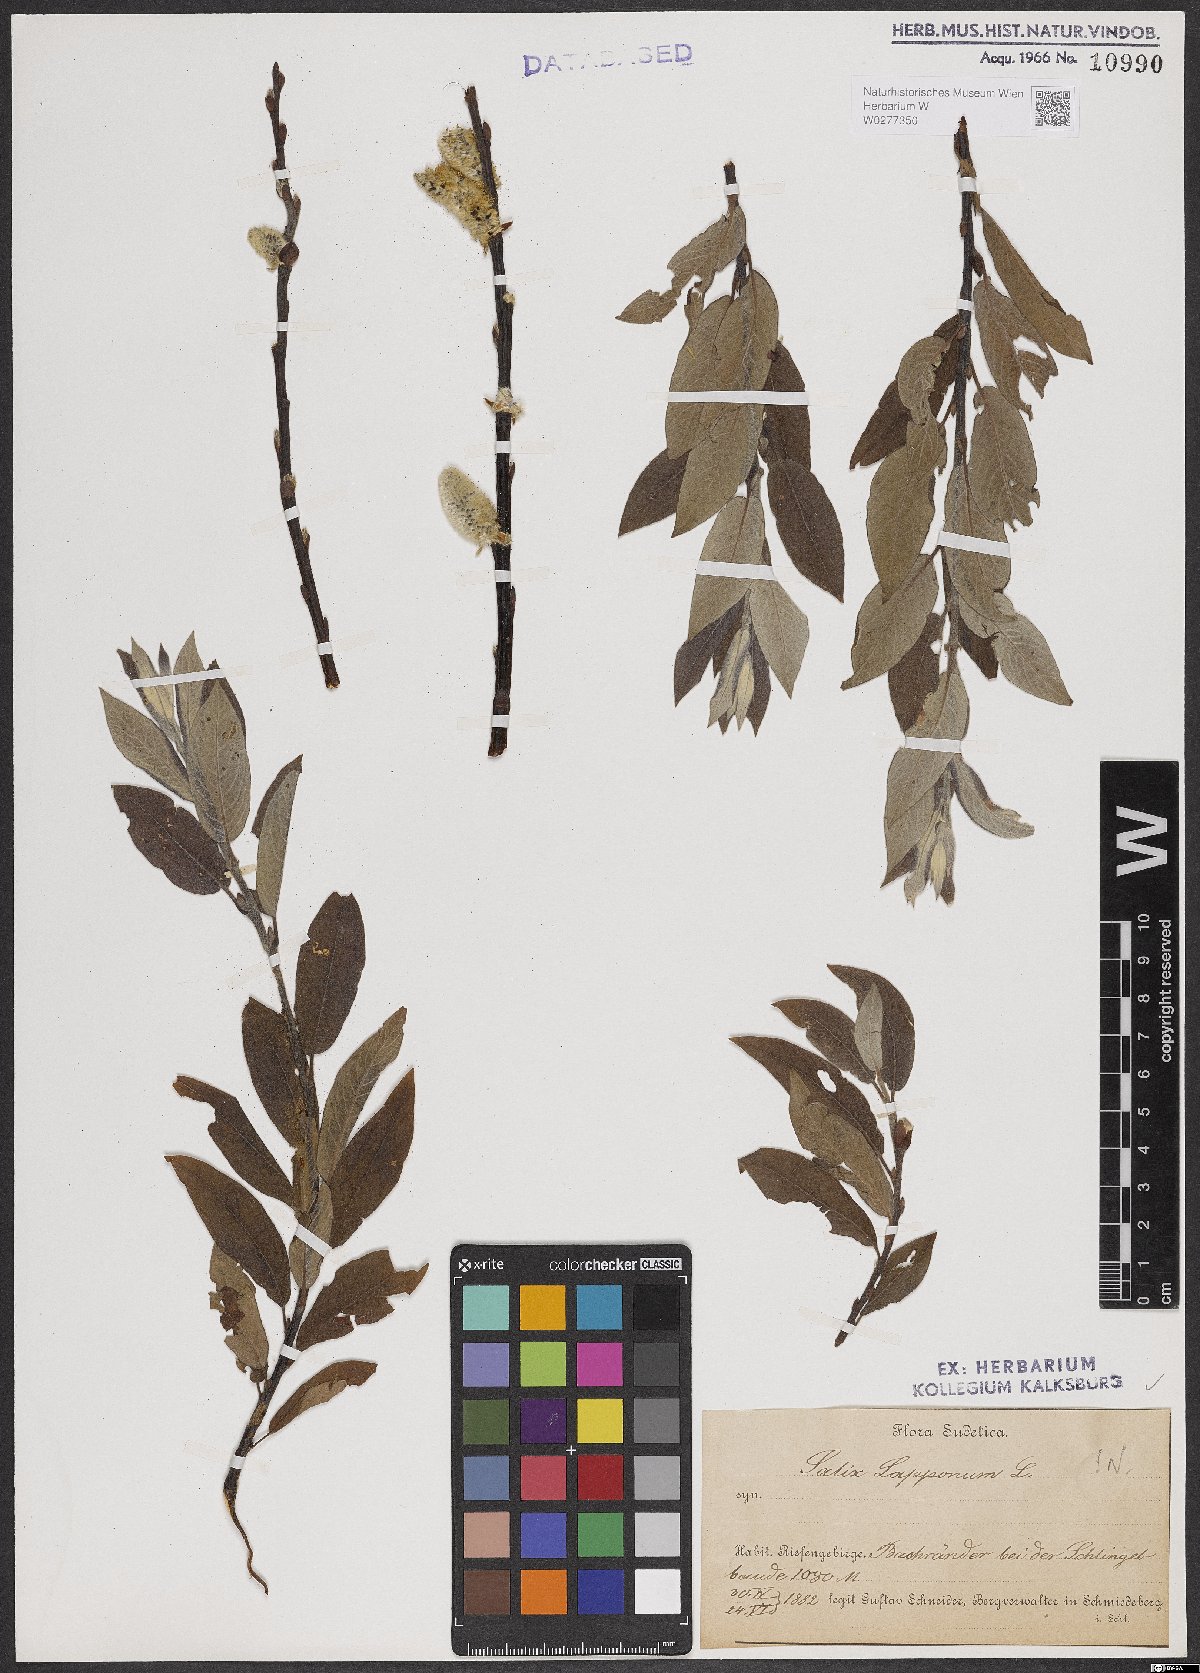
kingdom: Plantae
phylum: Tracheophyta
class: Magnoliopsida
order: Malpighiales
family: Salicaceae
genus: Salix
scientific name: Salix lapponum
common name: Downy willow
